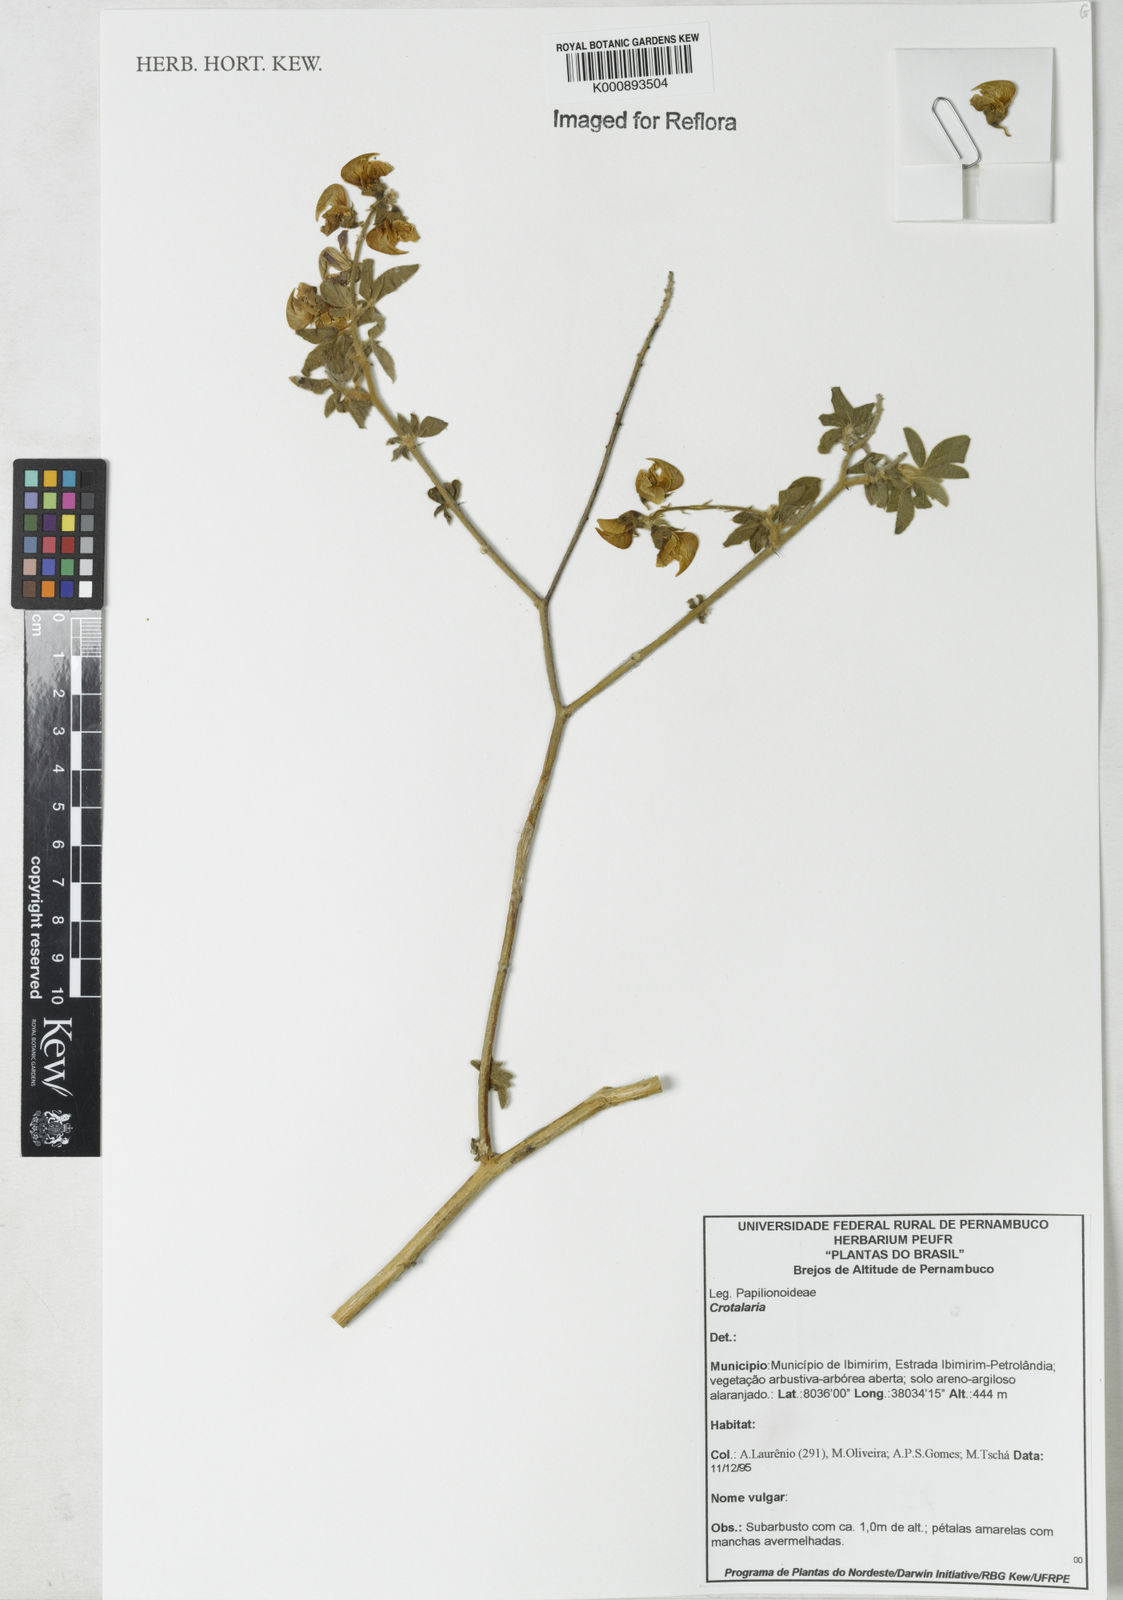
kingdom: Plantae
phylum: Tracheophyta
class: Magnoliopsida
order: Fabales
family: Fabaceae
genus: Crotalaria
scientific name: Crotalaria
